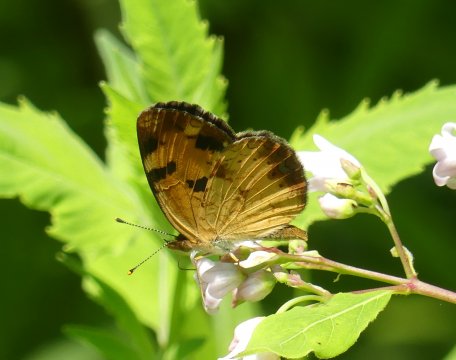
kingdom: Animalia
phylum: Arthropoda
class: Insecta
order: Lepidoptera
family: Nymphalidae
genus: Phyciodes
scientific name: Phyciodes tharos
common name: Northern Crescent
